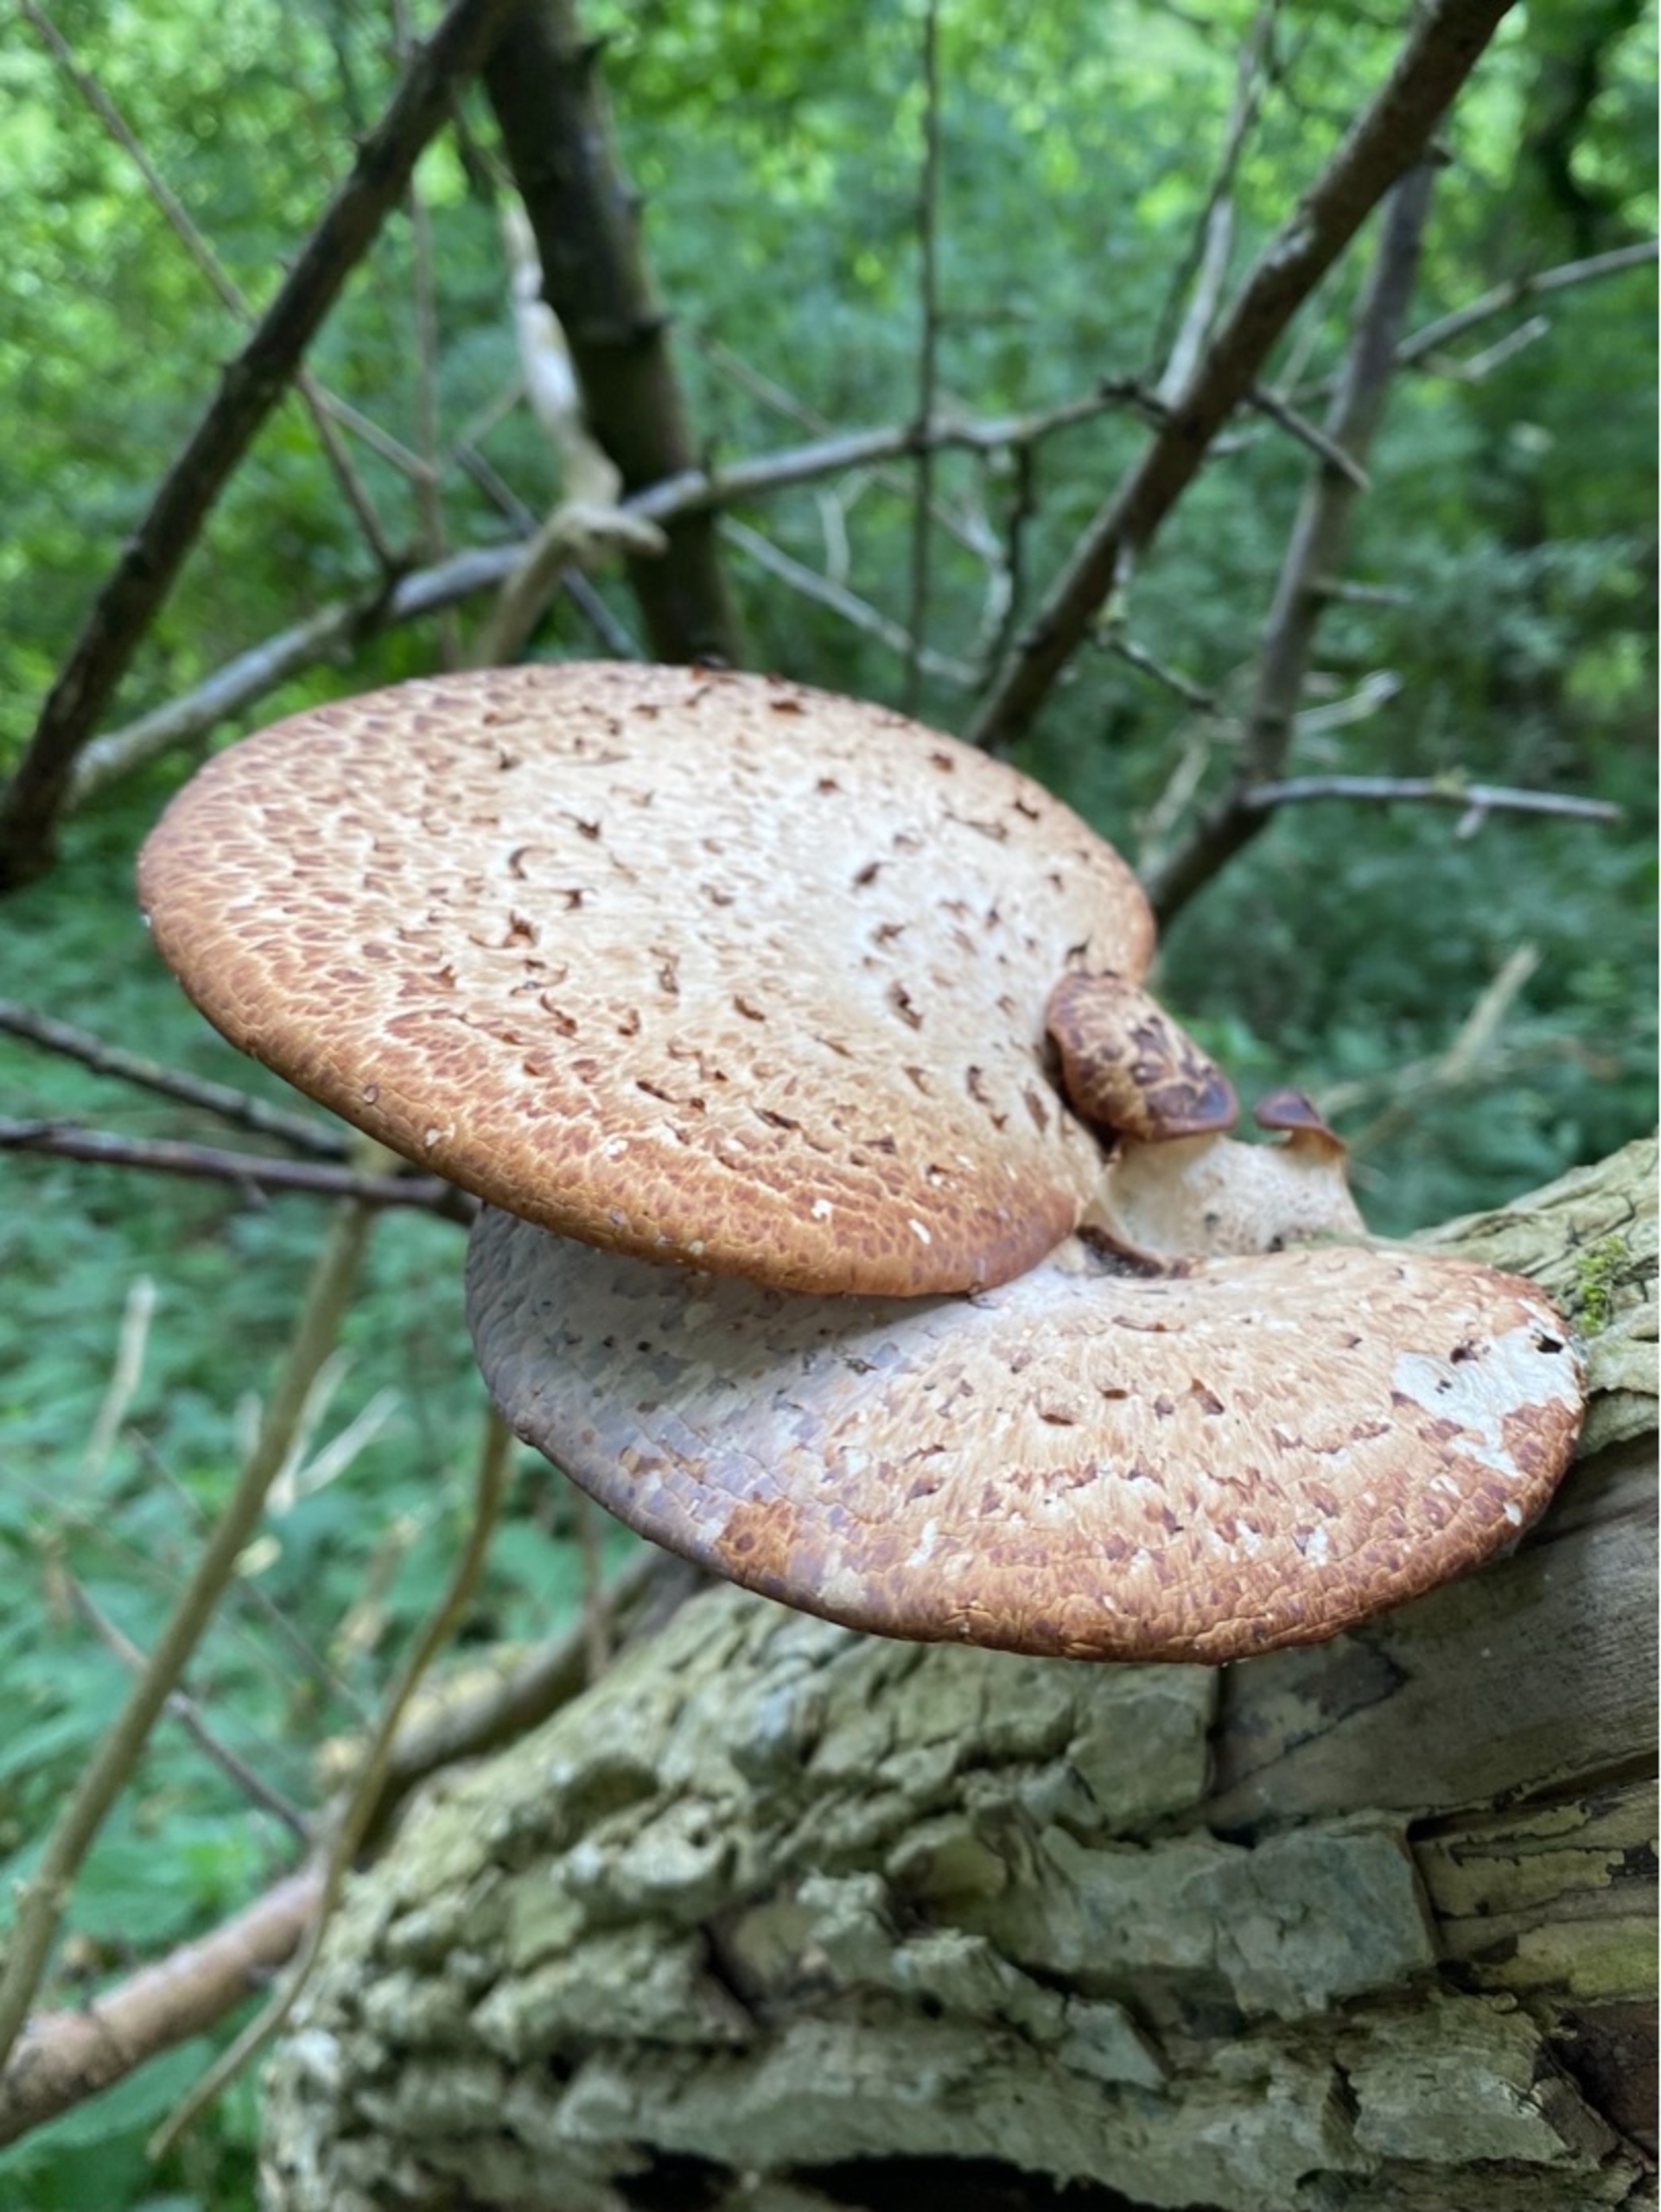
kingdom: Fungi
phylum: Basidiomycota
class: Agaricomycetes
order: Polyporales
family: Polyporaceae
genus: Cerioporus
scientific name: Cerioporus squamosus
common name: Skællet stilkporesvamp
